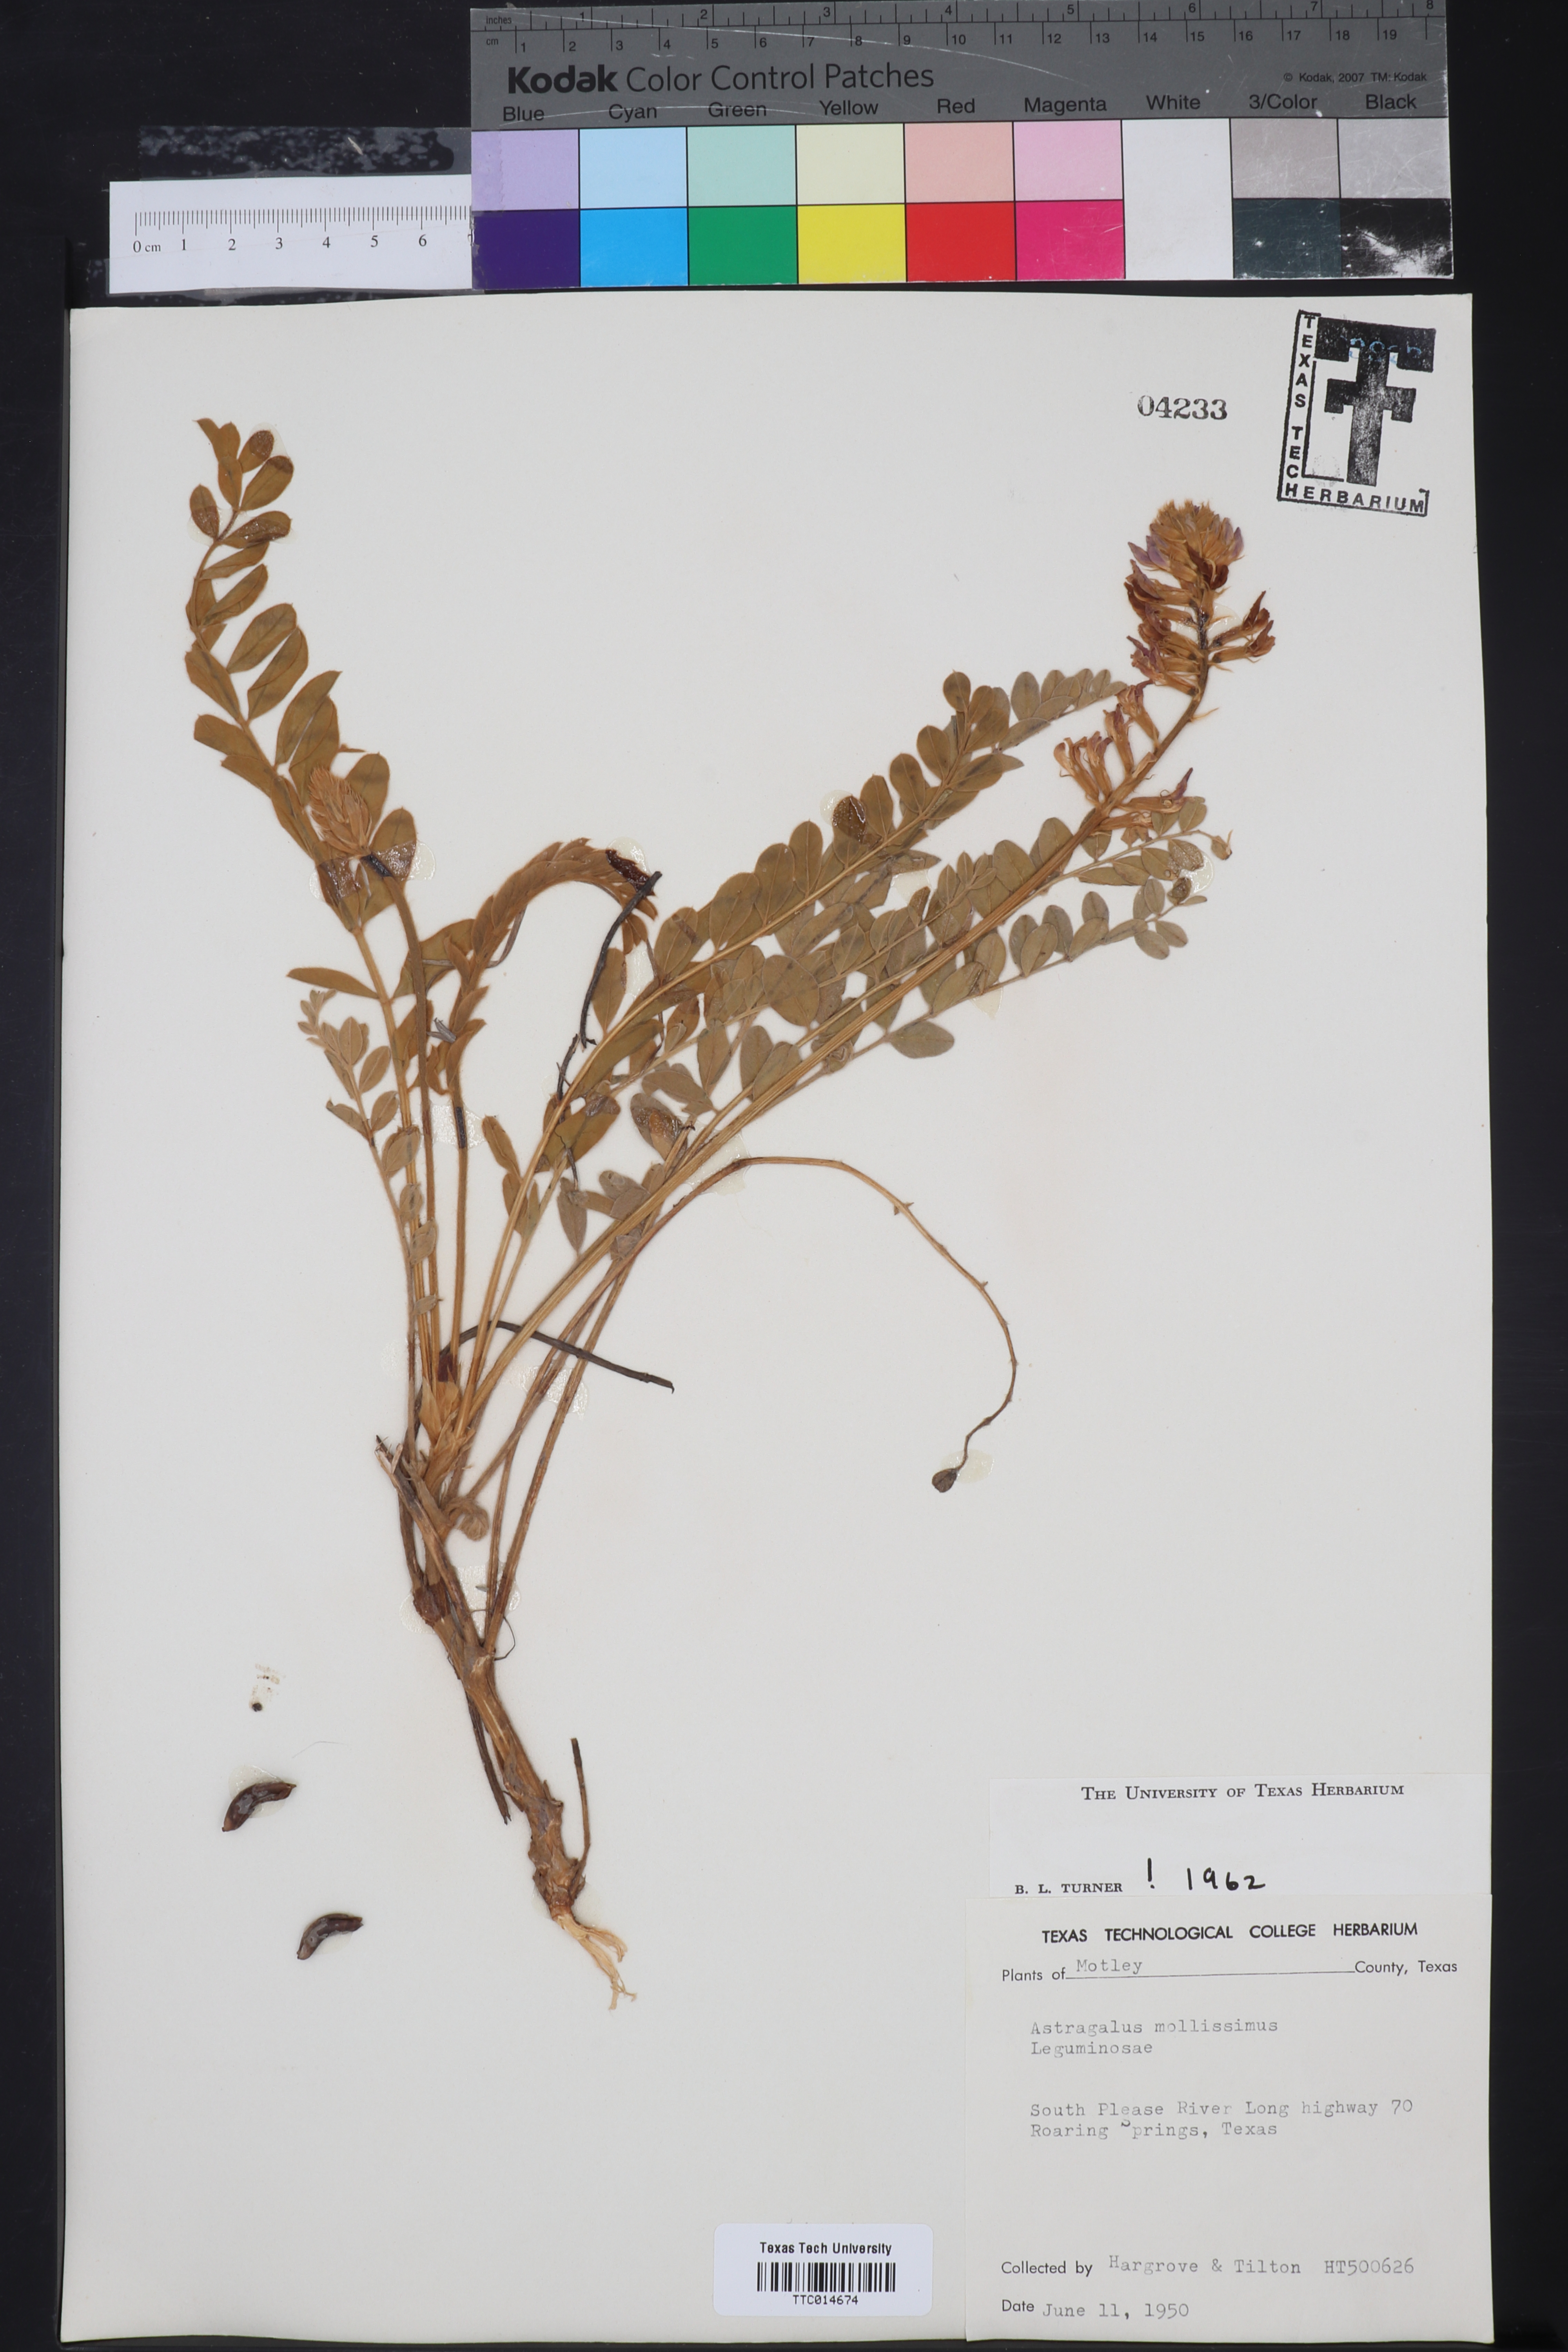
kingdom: Plantae
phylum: Tracheophyta
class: Magnoliopsida
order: Fabales
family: Fabaceae
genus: Astragalus
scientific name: Astragalus mollissimus
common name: Woolly locoweed
